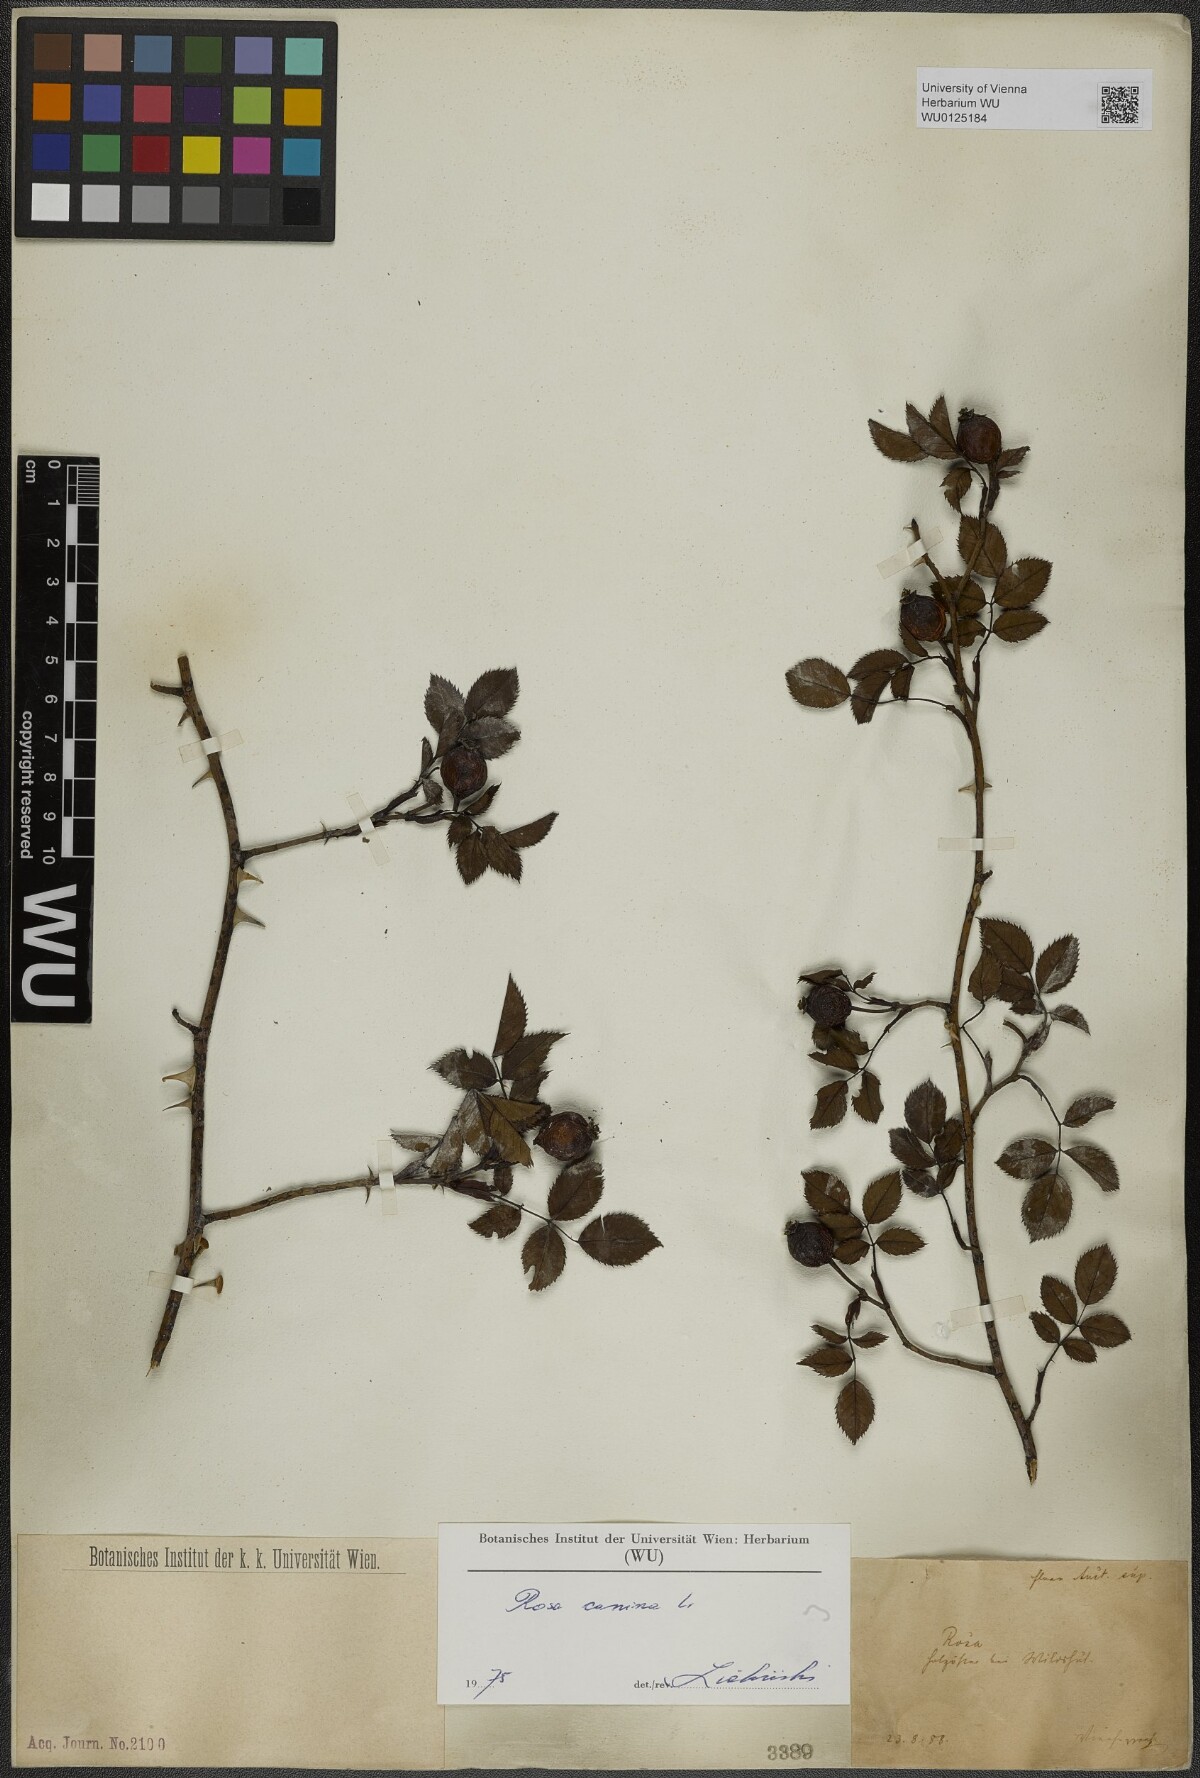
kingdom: Plantae
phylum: Tracheophyta
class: Magnoliopsida
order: Rosales
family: Rosaceae
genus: Rosa
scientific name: Rosa canina
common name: Dog rose
